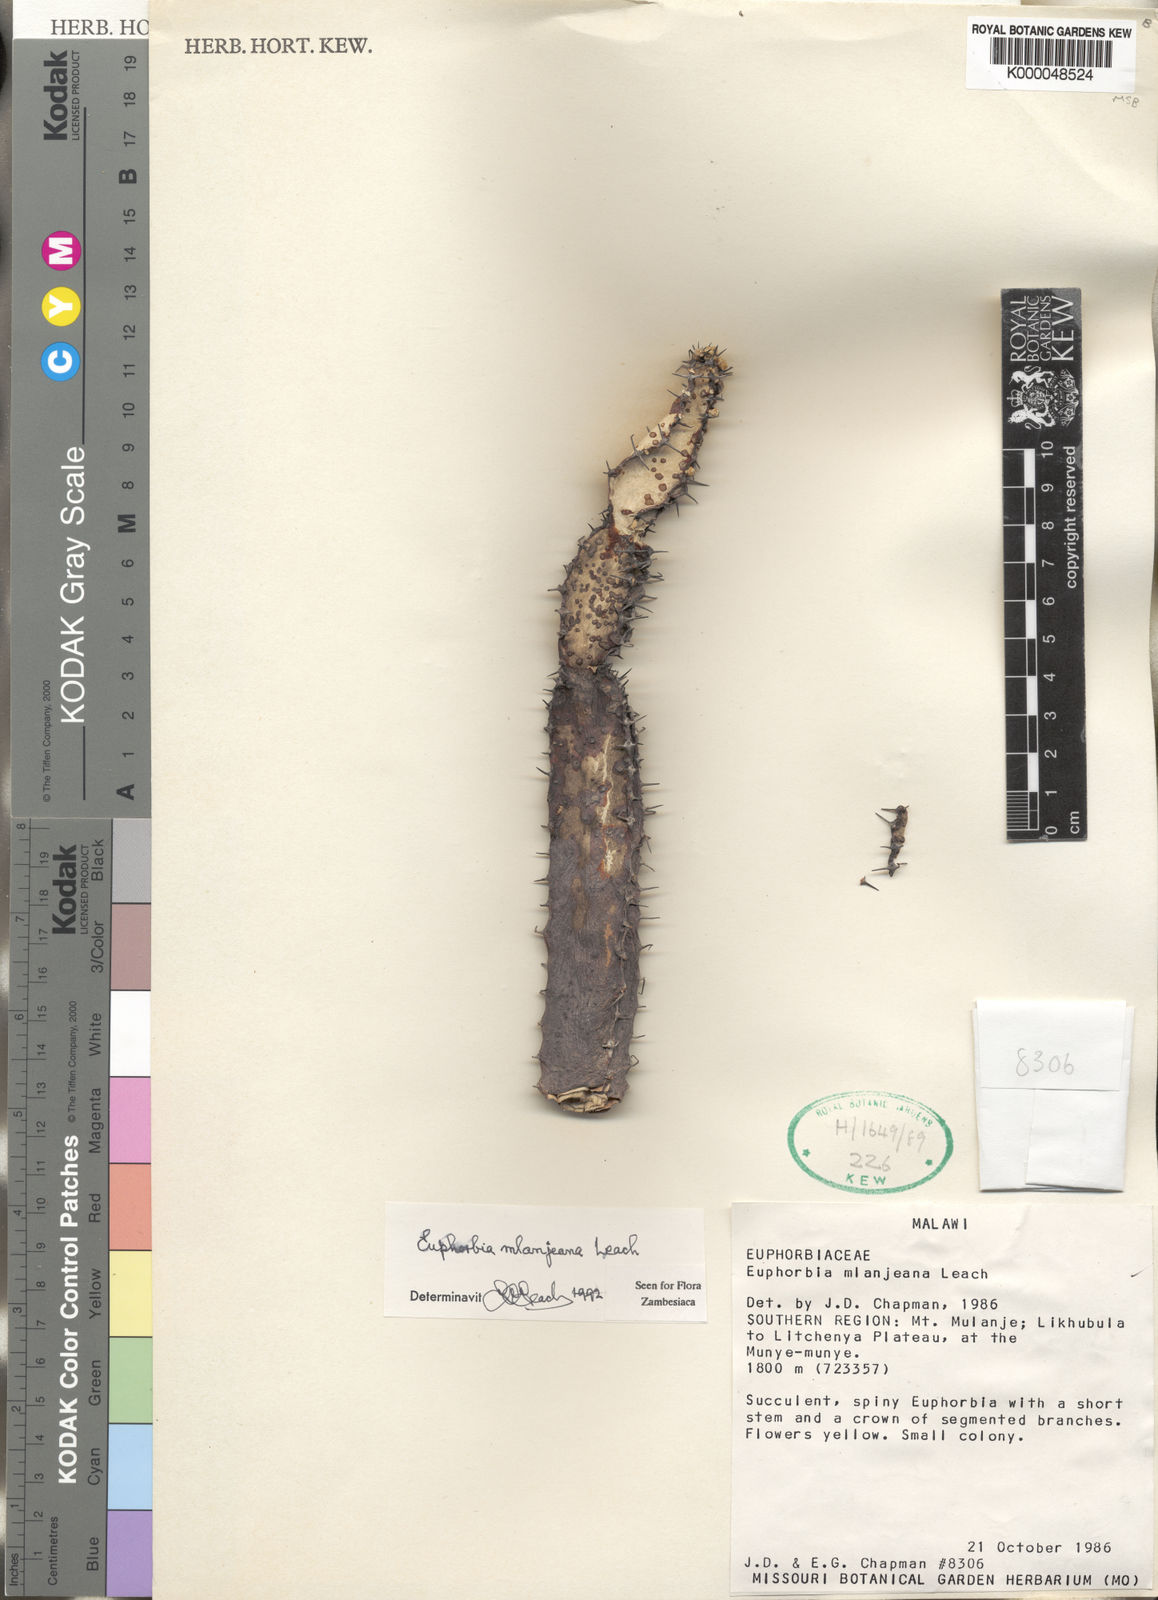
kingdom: Plantae
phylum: Tracheophyta
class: Magnoliopsida
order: Malpighiales
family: Euphorbiaceae
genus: Euphorbia
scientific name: Euphorbia mlanjeana
